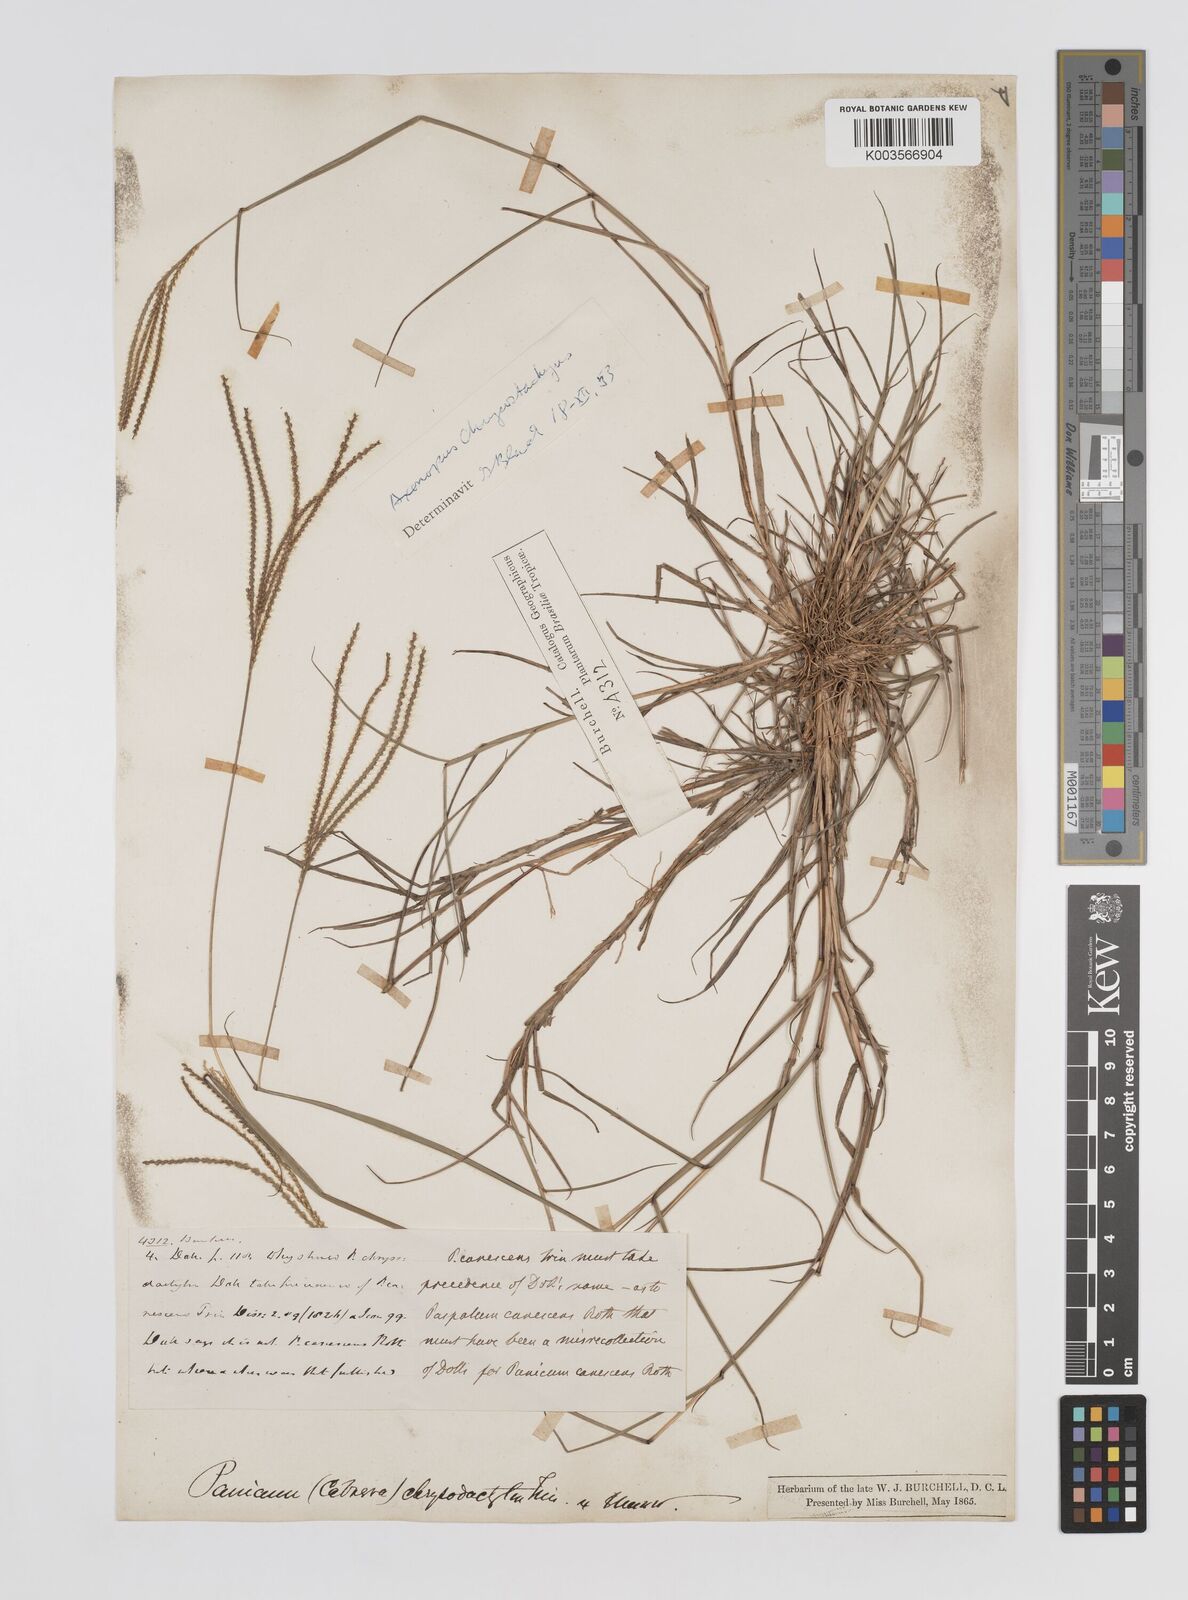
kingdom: Plantae
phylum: Tracheophyta
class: Liliopsida
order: Poales
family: Poaceae
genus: Axonopus
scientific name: Axonopus aureus
